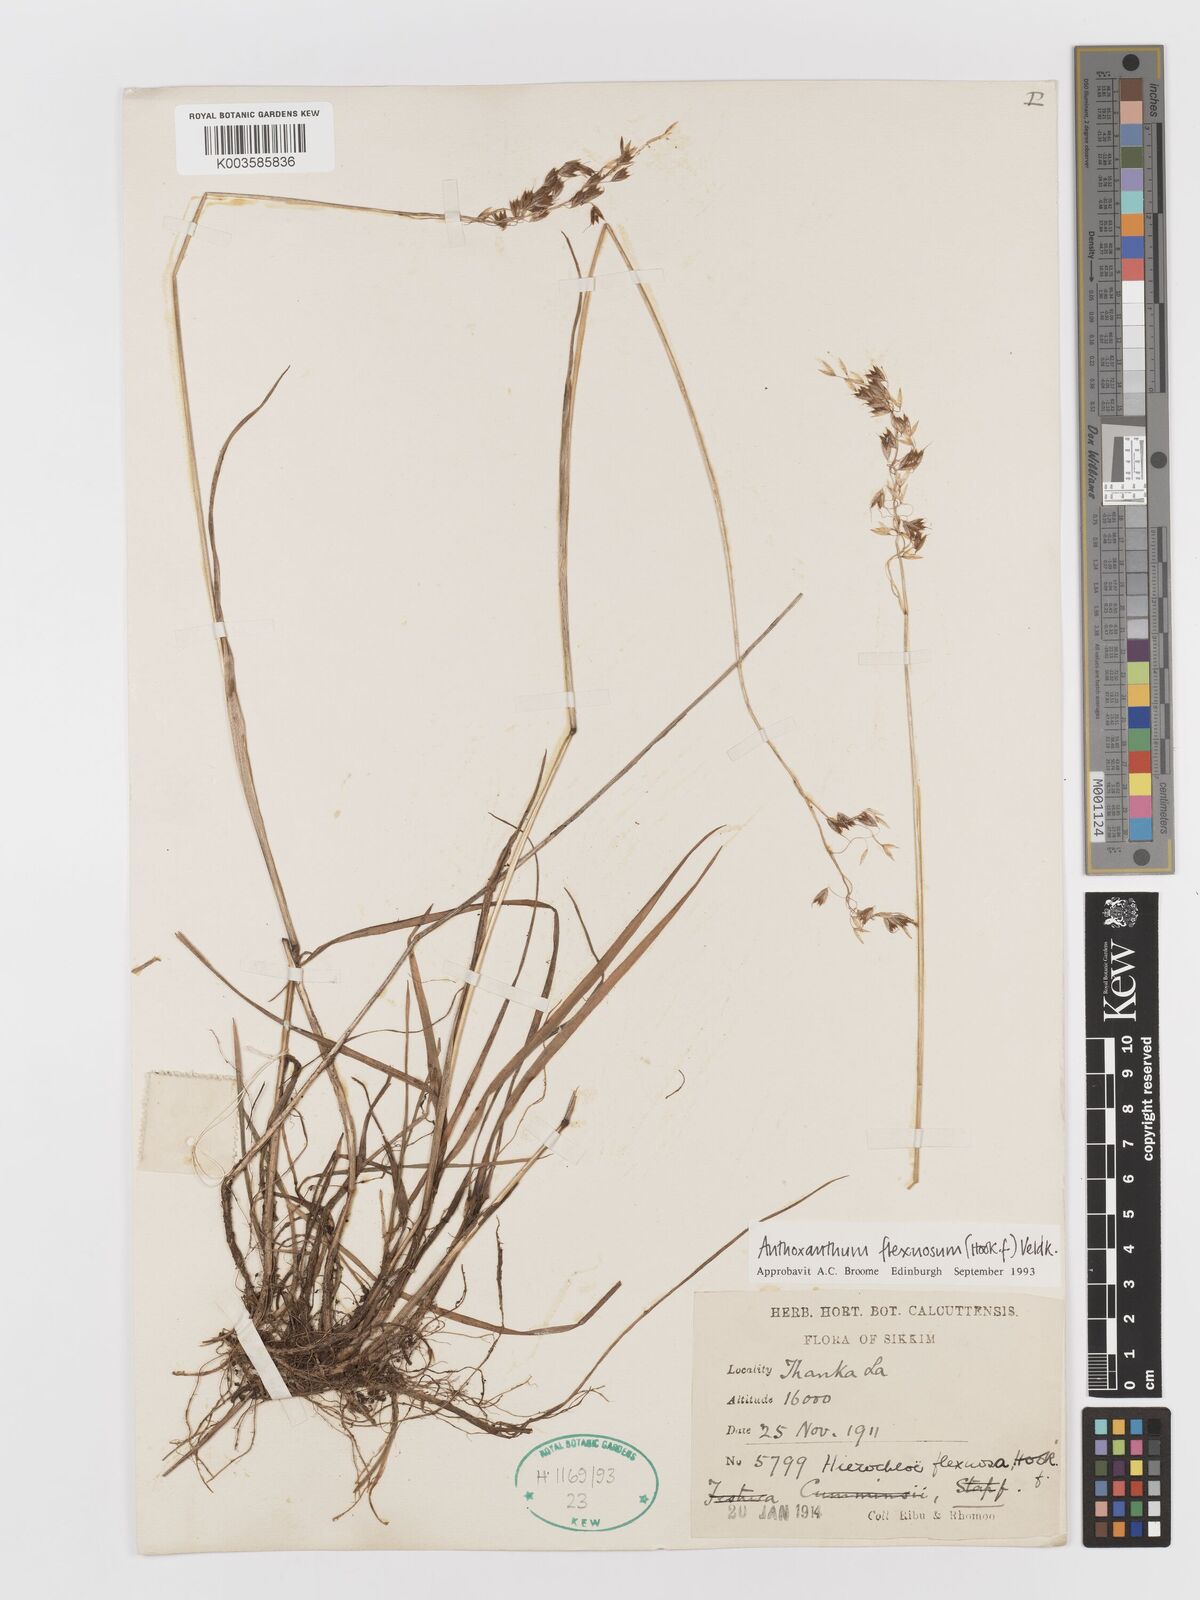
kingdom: Plantae
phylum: Tracheophyta
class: Liliopsida
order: Poales
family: Poaceae
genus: Anthoxanthum
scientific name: Anthoxanthum flexuosum
